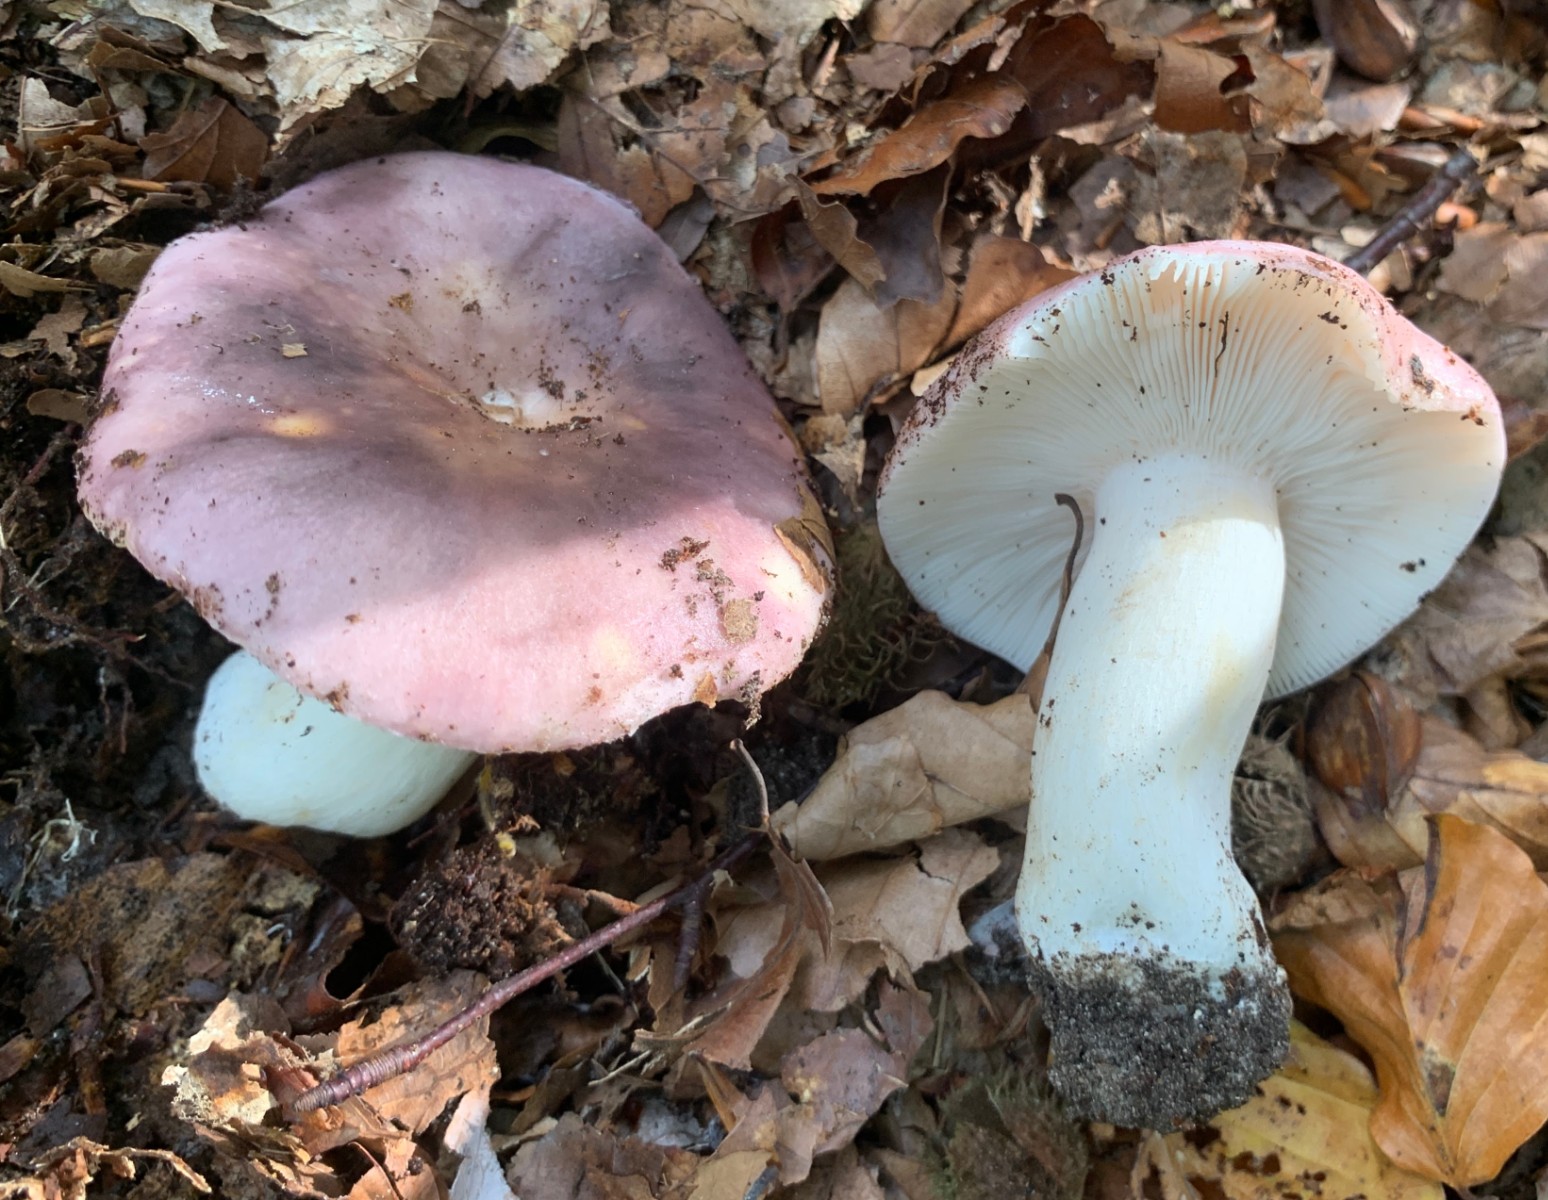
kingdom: Fungi
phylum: Basidiomycota
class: Agaricomycetes
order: Russulales
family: Russulaceae
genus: Russula
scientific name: Russula cyanoxantha
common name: broget skørhat
